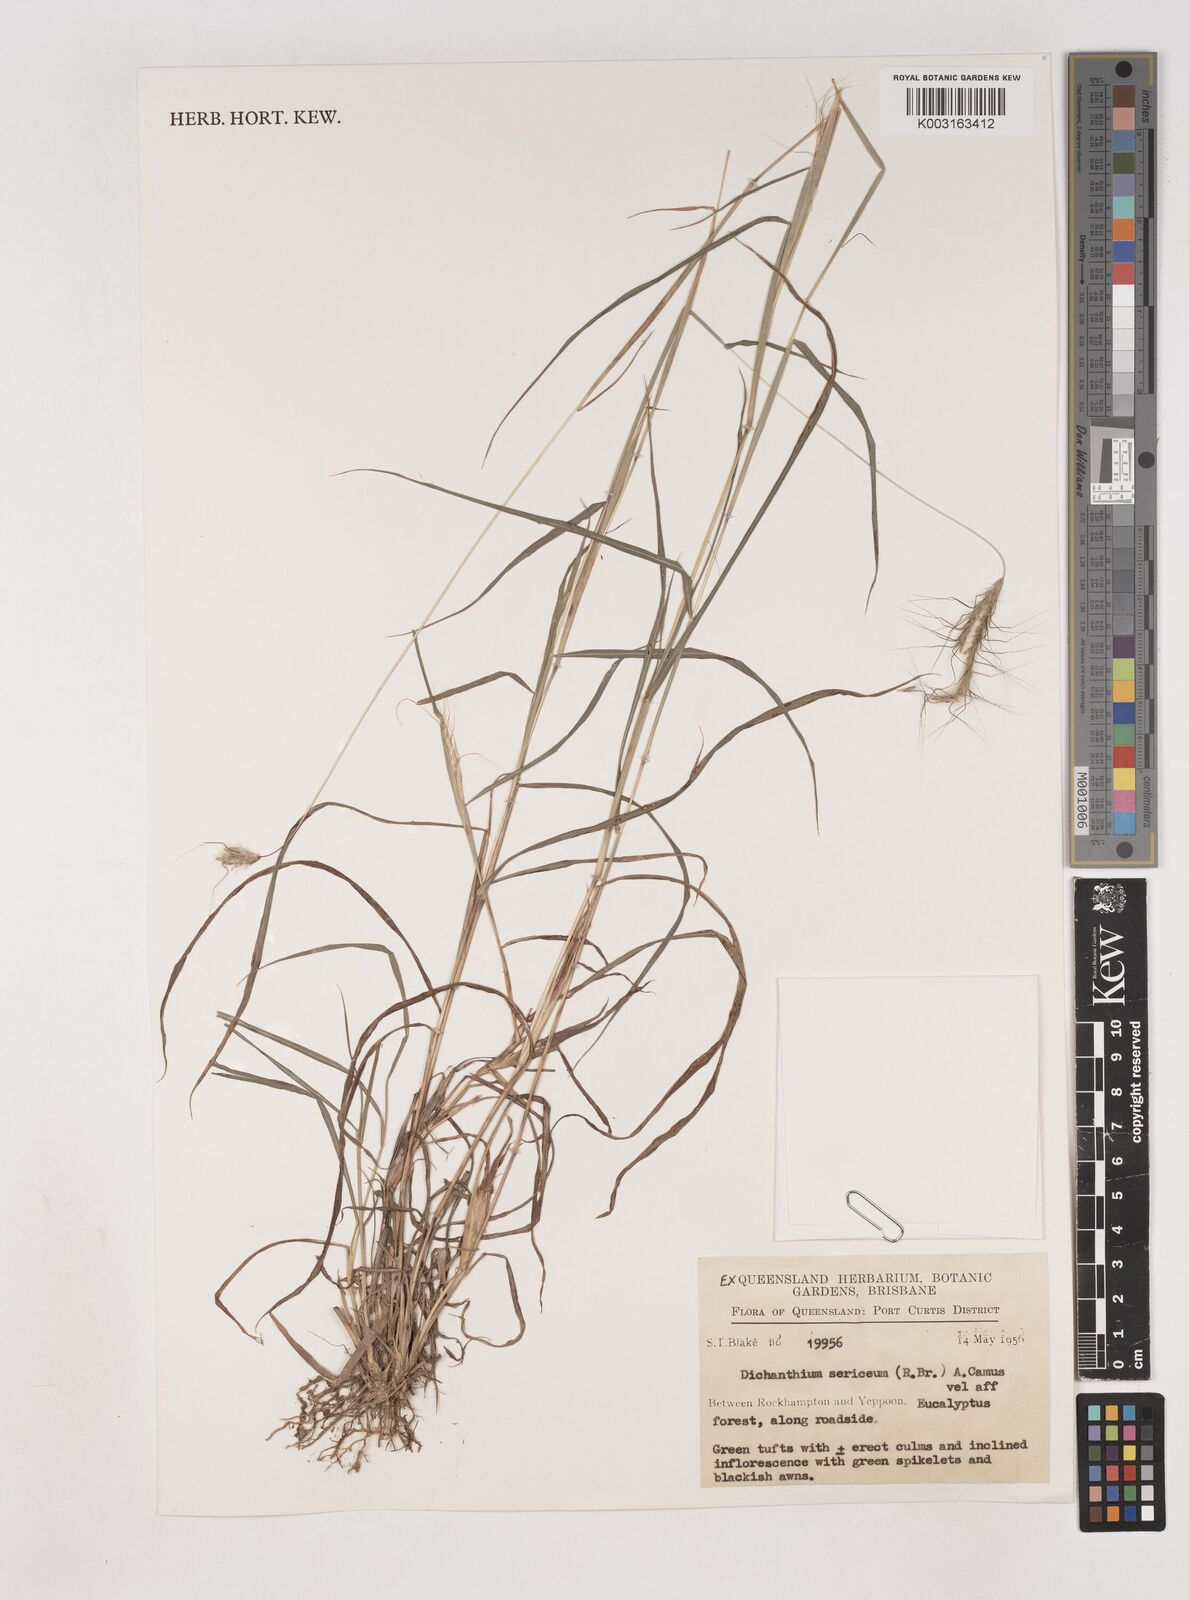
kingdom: Plantae
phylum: Tracheophyta
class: Liliopsida
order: Poales
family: Poaceae
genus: Dichanthium
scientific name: Dichanthium sericeum
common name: Silky bluestem
